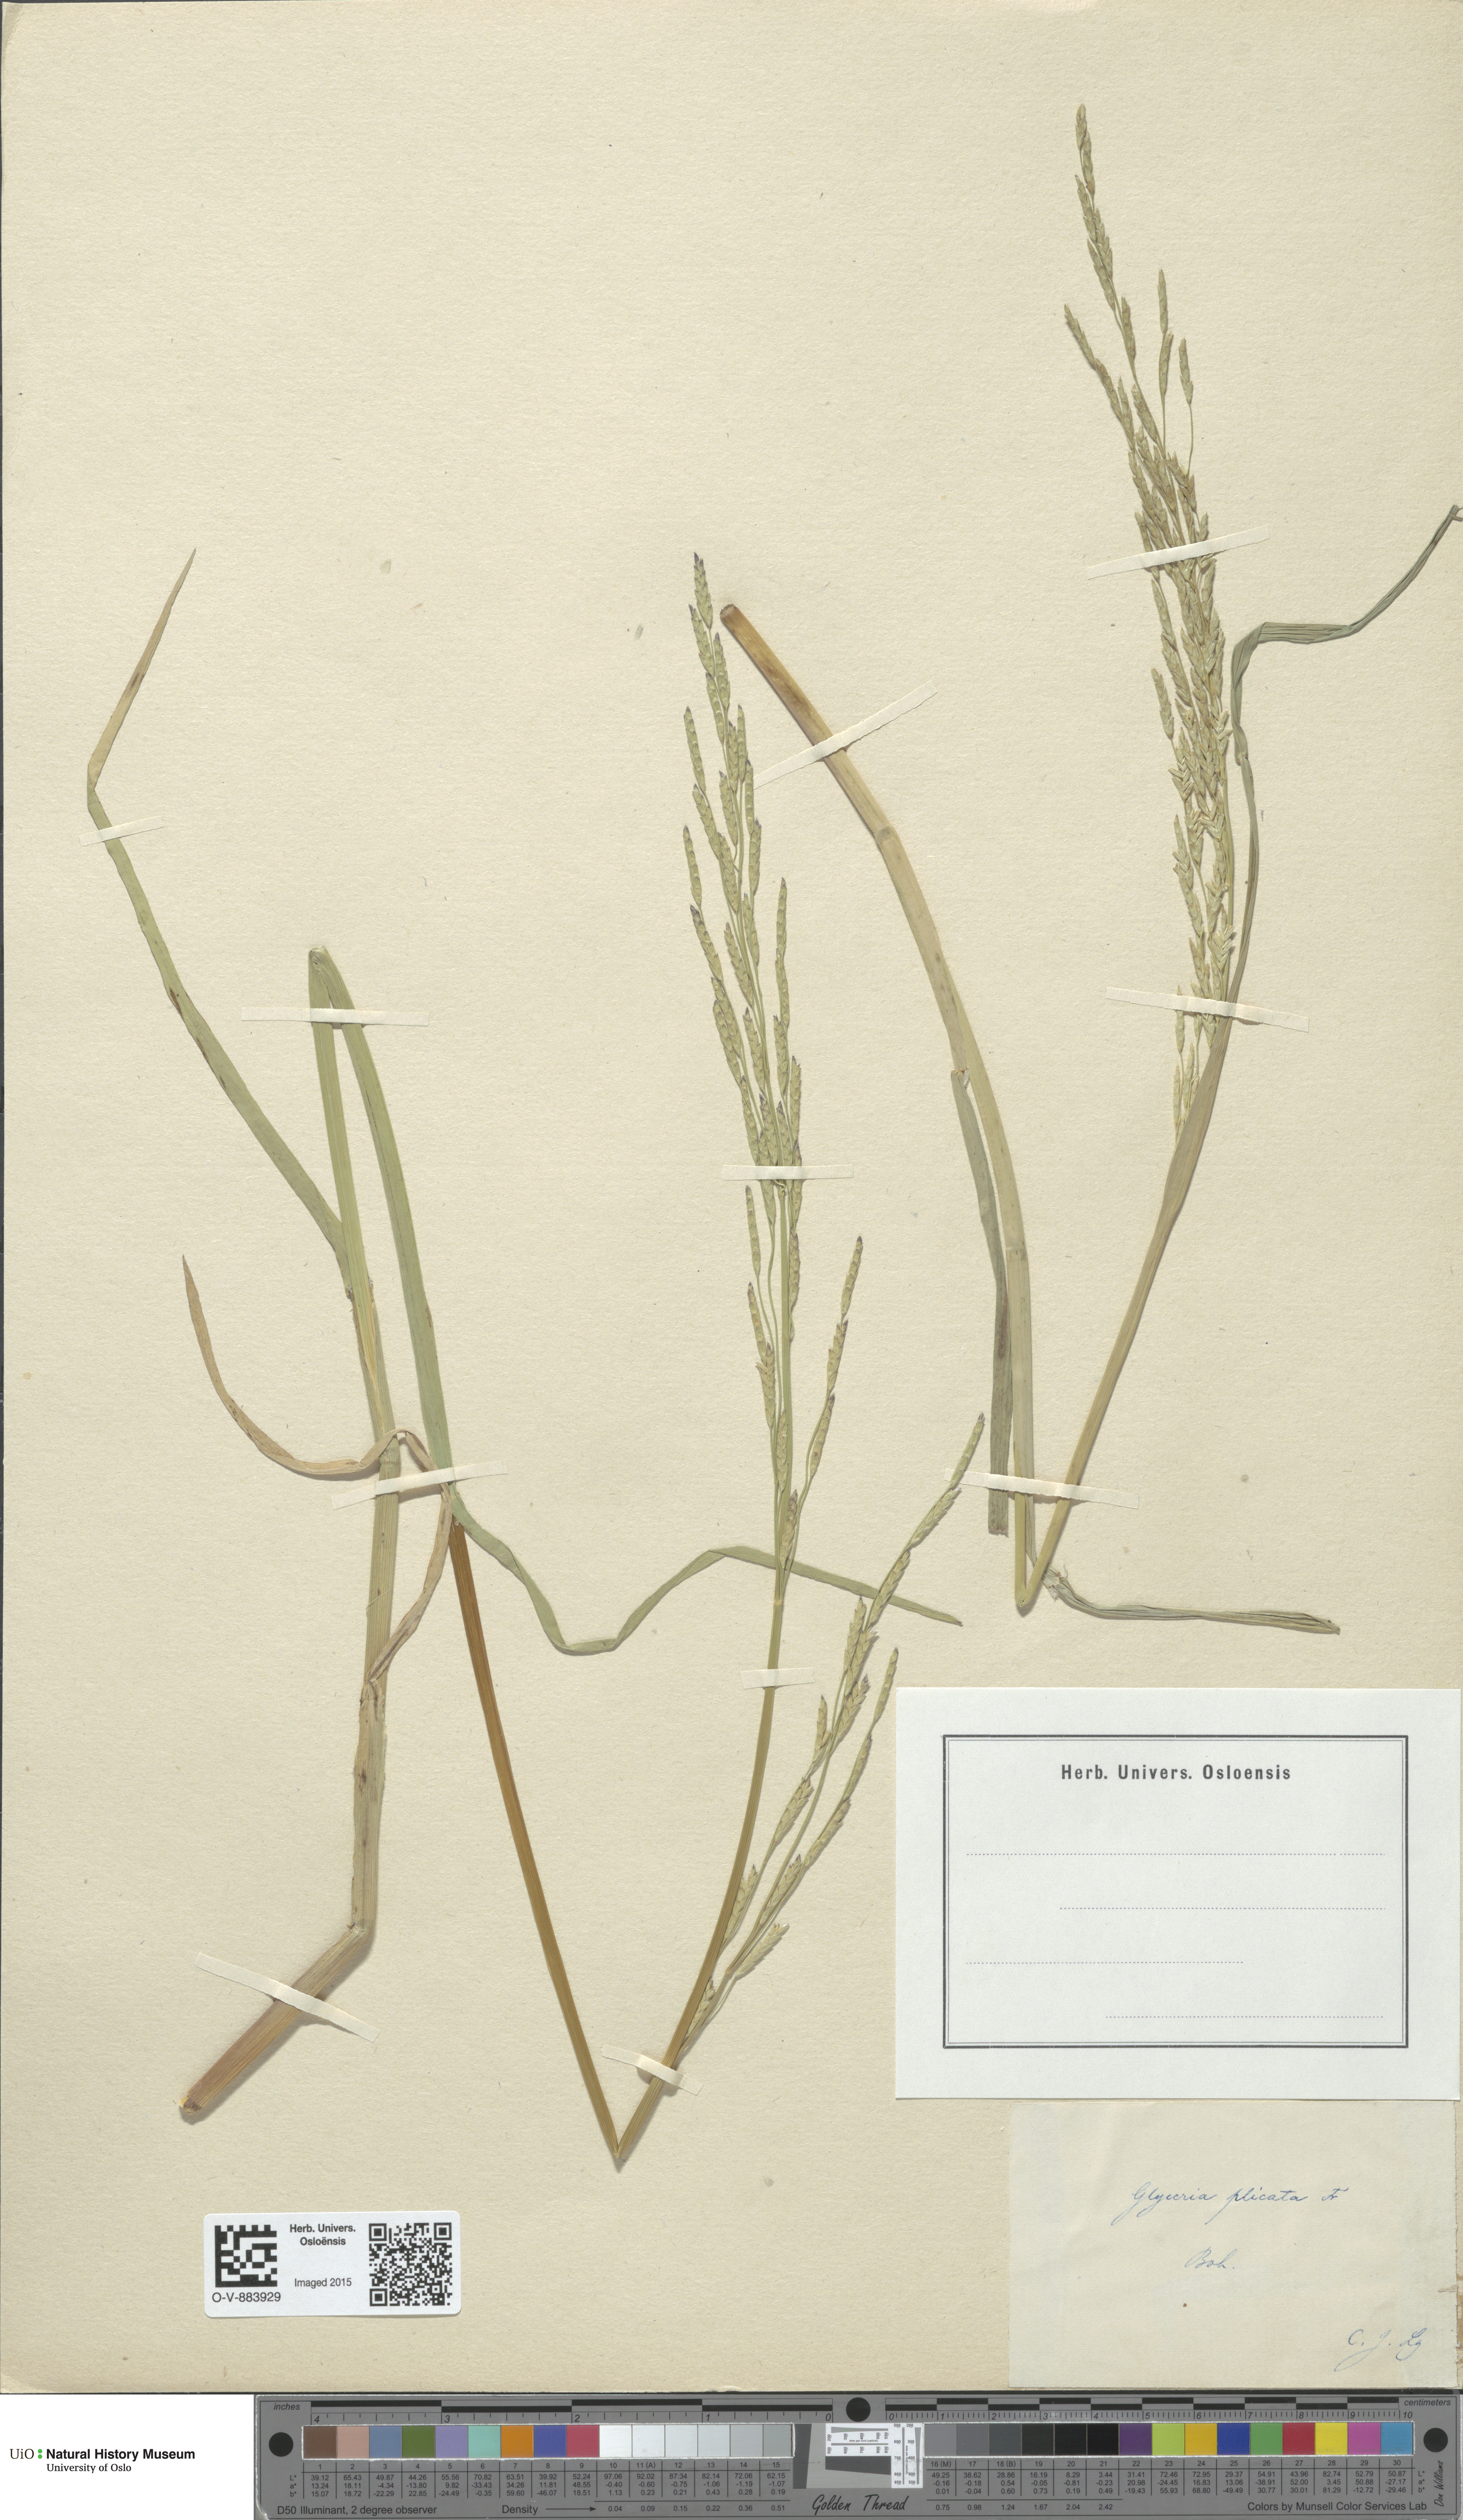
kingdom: Plantae
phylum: Tracheophyta
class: Liliopsida
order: Poales
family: Poaceae
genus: Glyceria
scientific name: Glyceria notata
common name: Plicate sweet-grass
